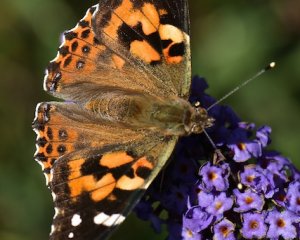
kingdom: Animalia
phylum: Arthropoda
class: Insecta
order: Lepidoptera
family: Nymphalidae
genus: Vanessa
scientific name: Vanessa cardui
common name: Painted Lady
